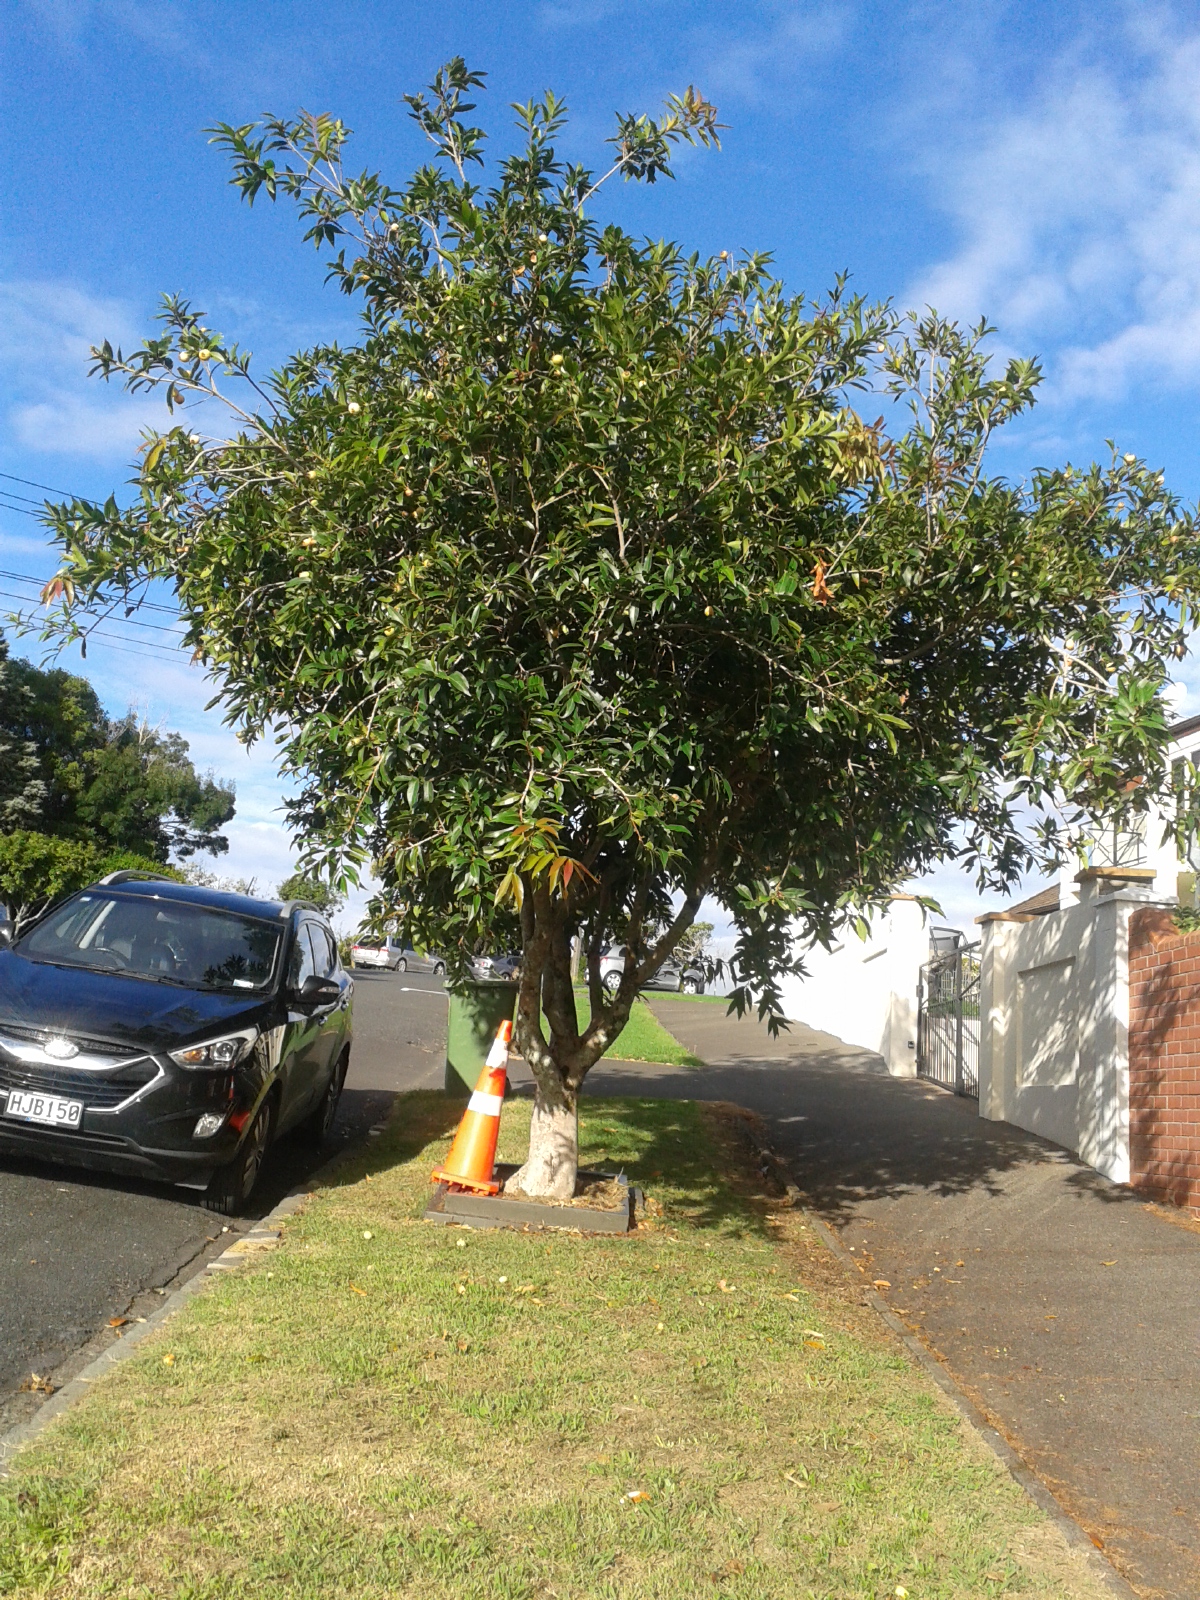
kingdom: Plantae
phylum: Tracheophyta
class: Magnoliopsida
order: Myrtales
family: Myrtaceae
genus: Syzygium
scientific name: Syzygium jambos
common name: Malabar plum
